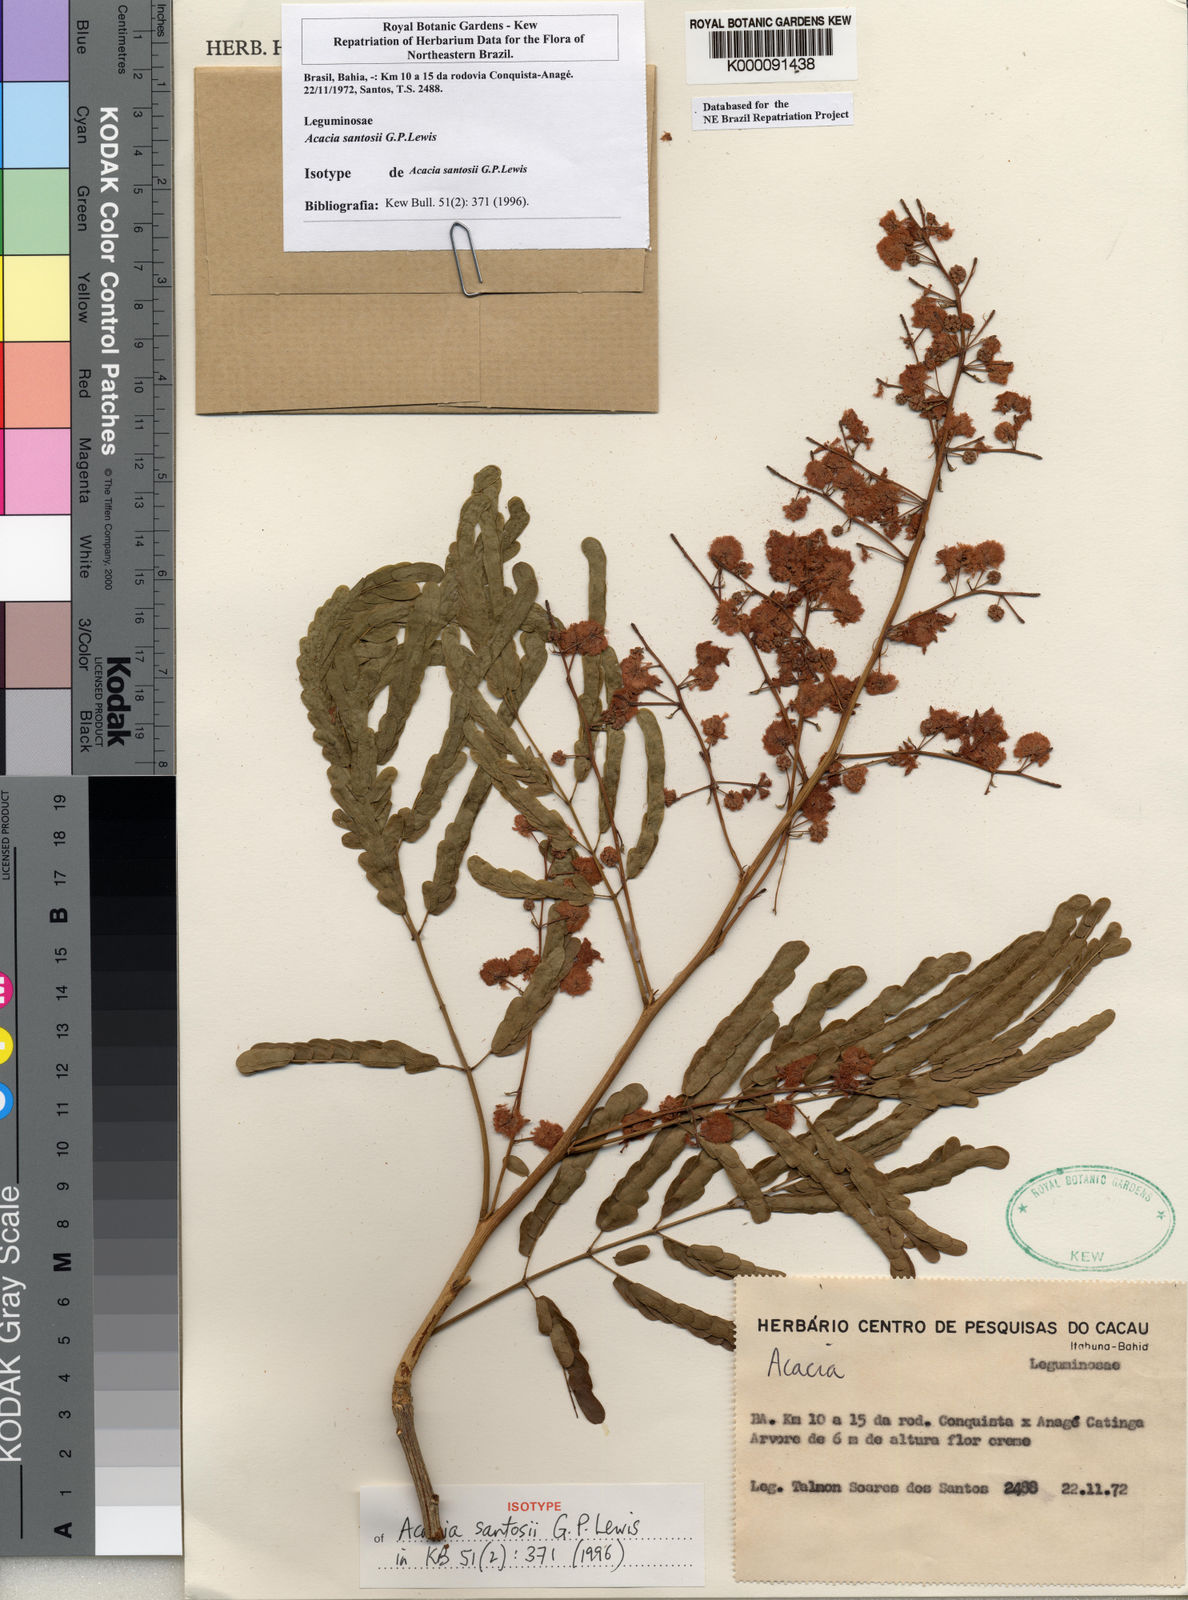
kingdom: Plantae
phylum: Tracheophyta
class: Magnoliopsida
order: Fabales
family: Fabaceae
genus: Parasenegalia
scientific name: Parasenegalia santosii
